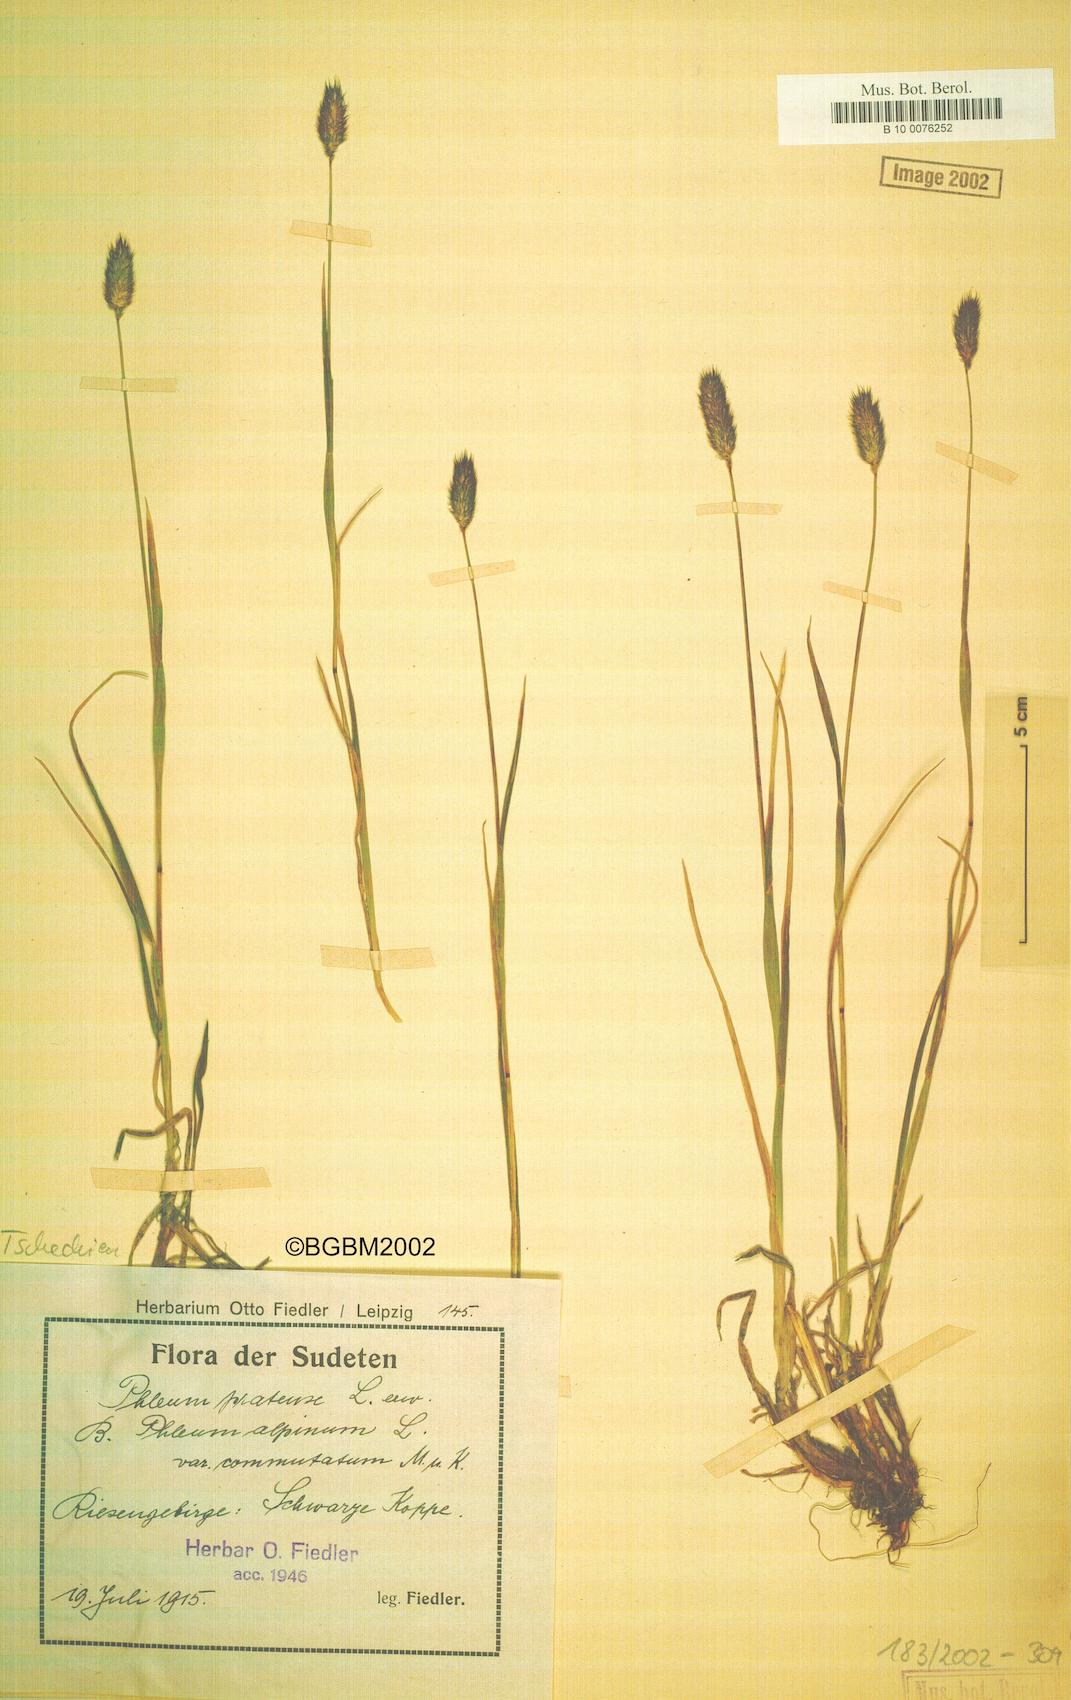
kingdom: Plantae
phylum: Tracheophyta
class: Liliopsida
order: Poales
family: Poaceae
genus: Phleum
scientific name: Phleum alpinum
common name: Alpine cat's-tail
